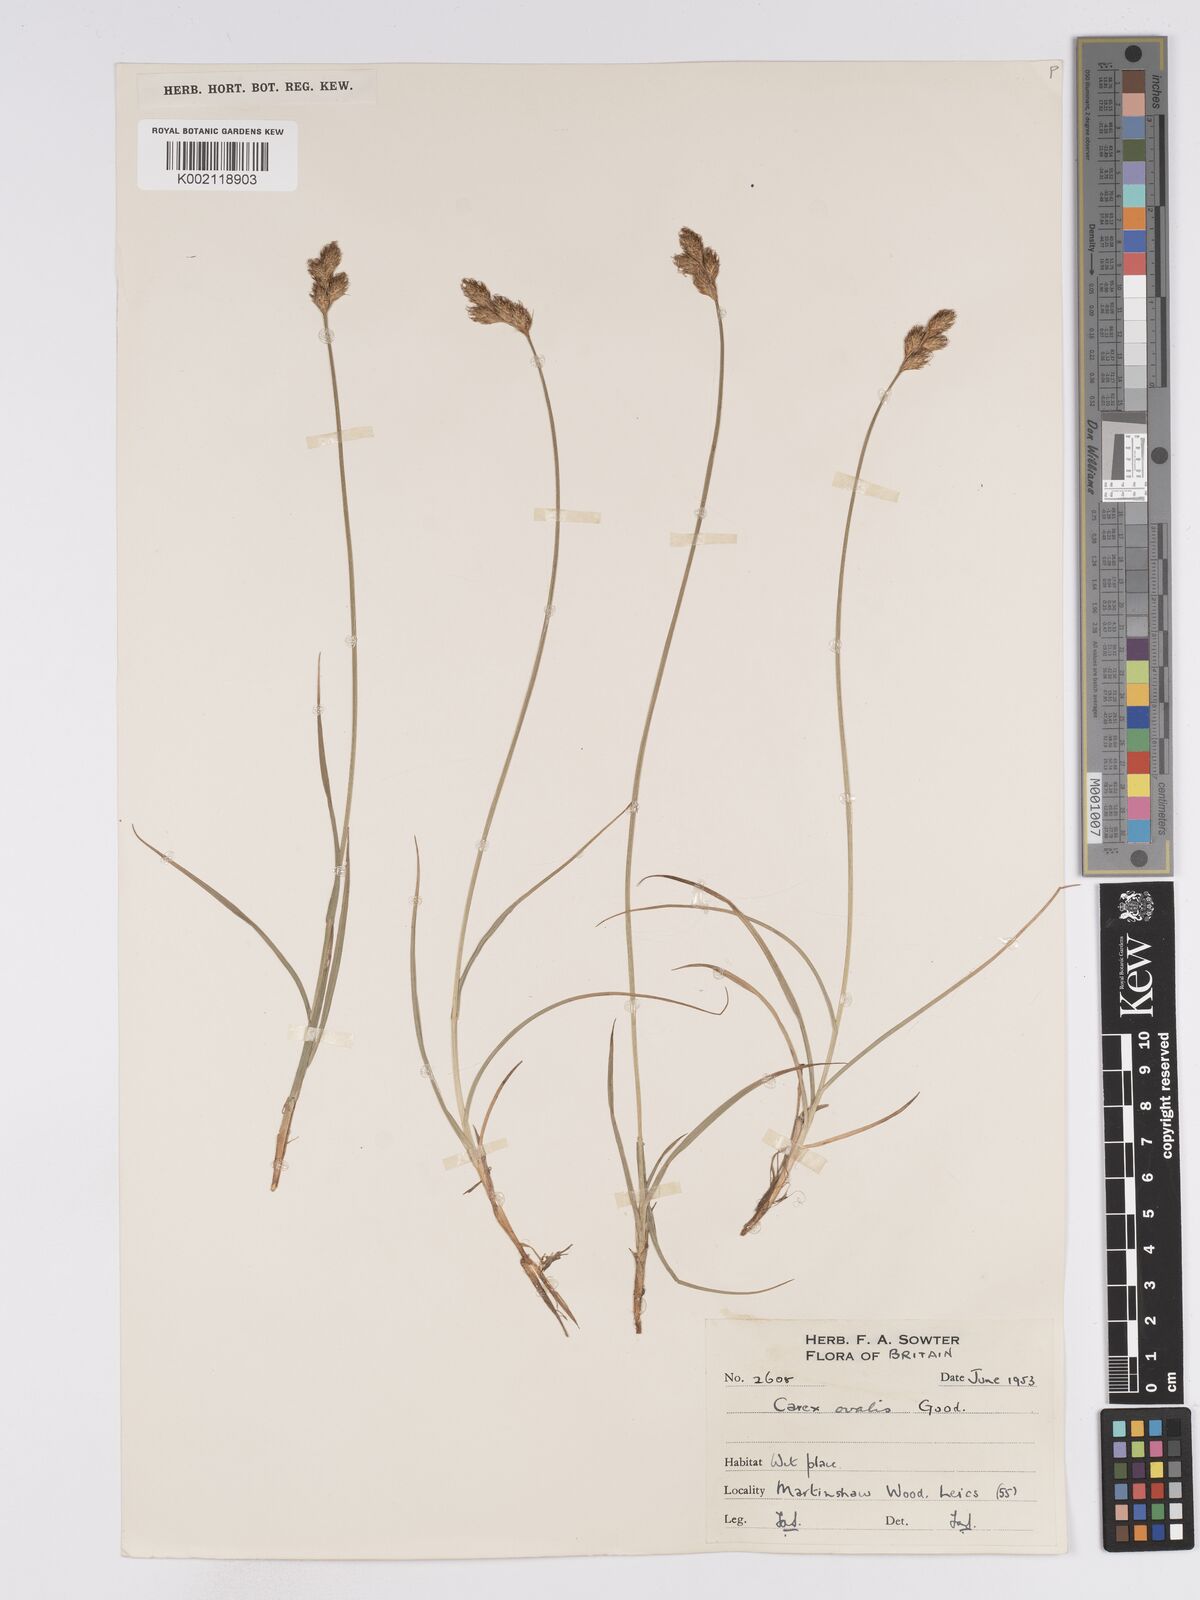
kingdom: Plantae
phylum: Tracheophyta
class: Liliopsida
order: Poales
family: Cyperaceae
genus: Carex
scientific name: Carex leporina
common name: Oval sedge
